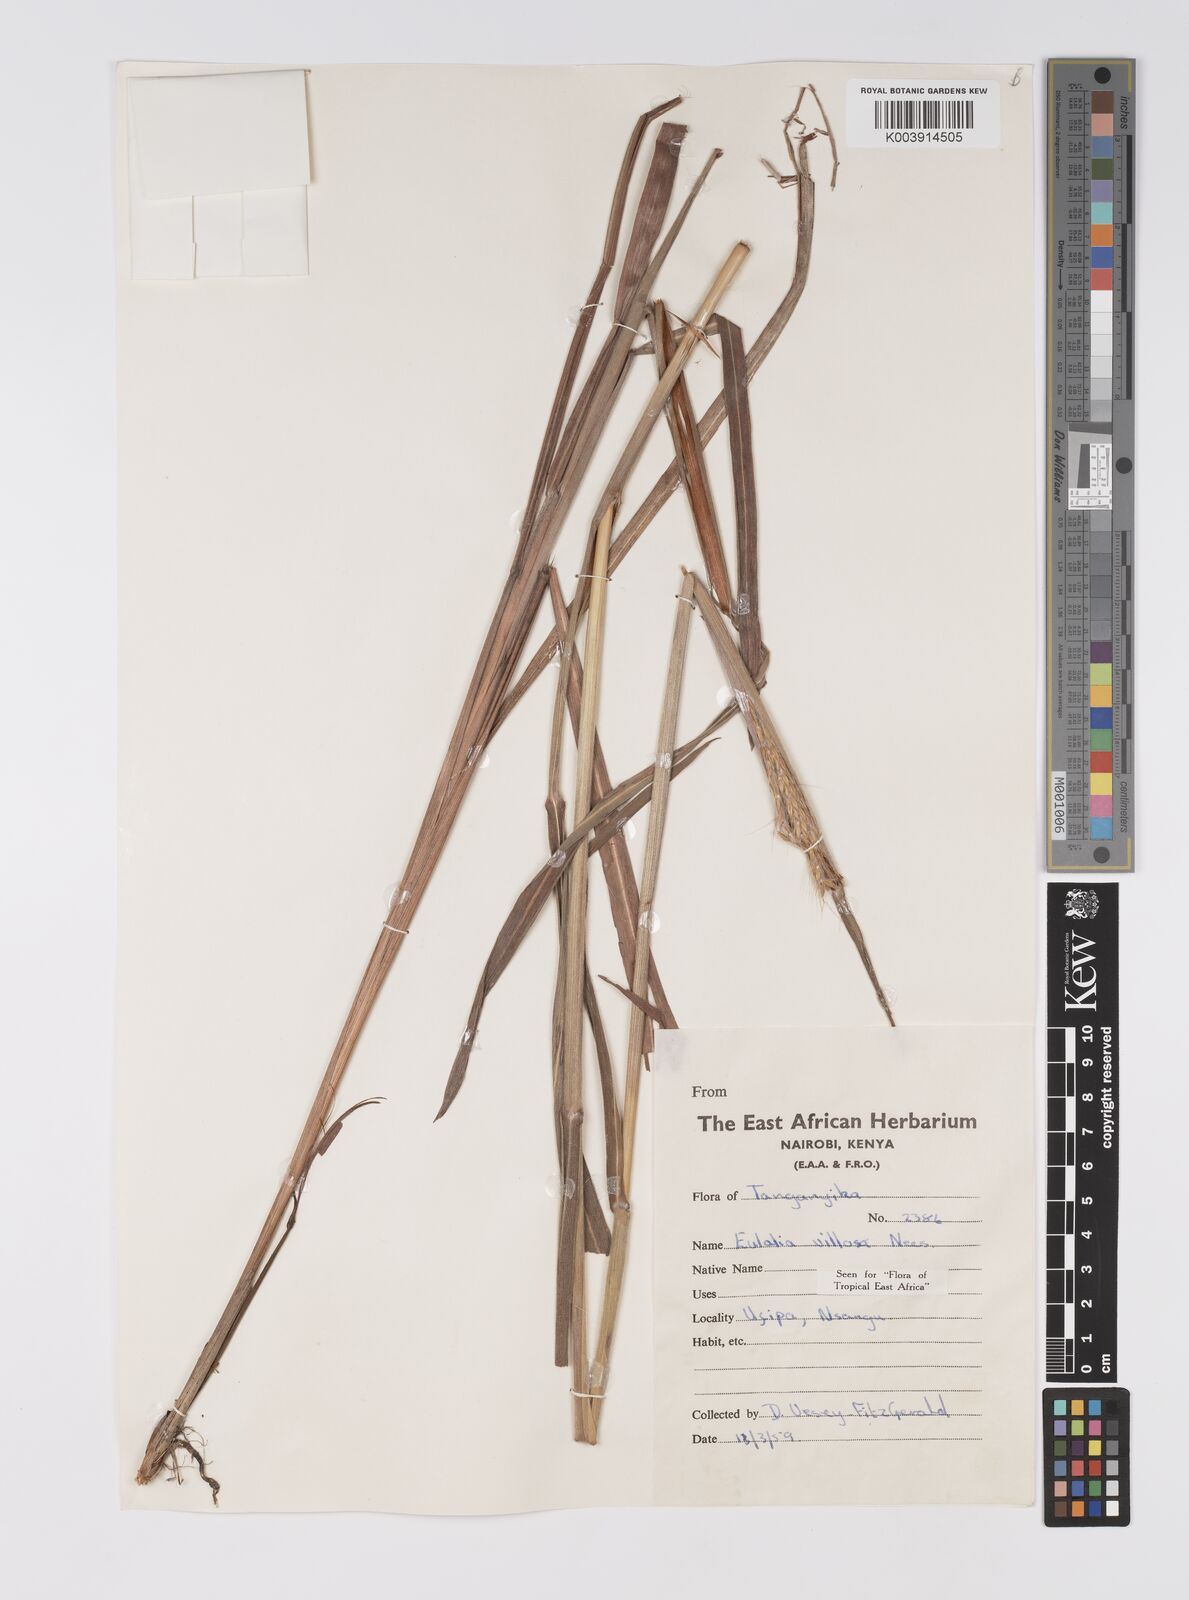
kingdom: Plantae
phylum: Tracheophyta
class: Liliopsida
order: Poales
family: Poaceae
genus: Eulalia
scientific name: Eulalia villosa
